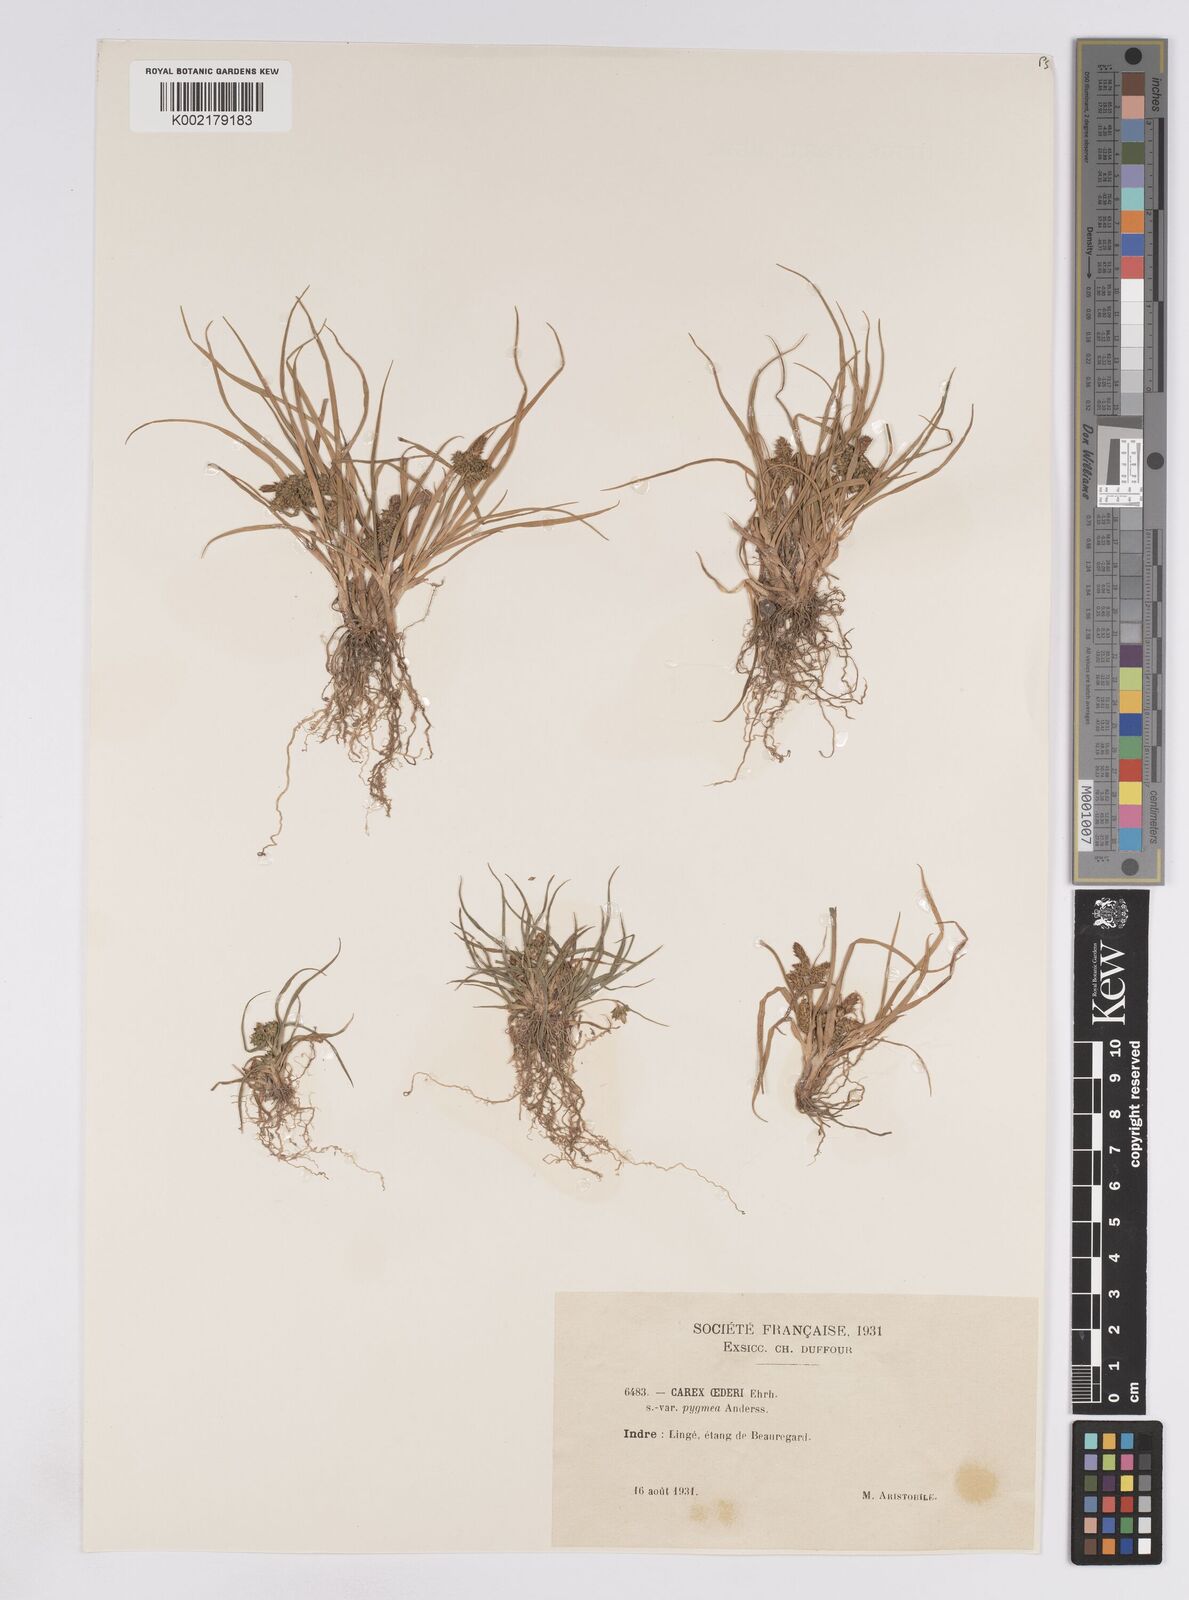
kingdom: Plantae
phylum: Tracheophyta
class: Liliopsida
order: Poales
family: Cyperaceae
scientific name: Cyperaceae
